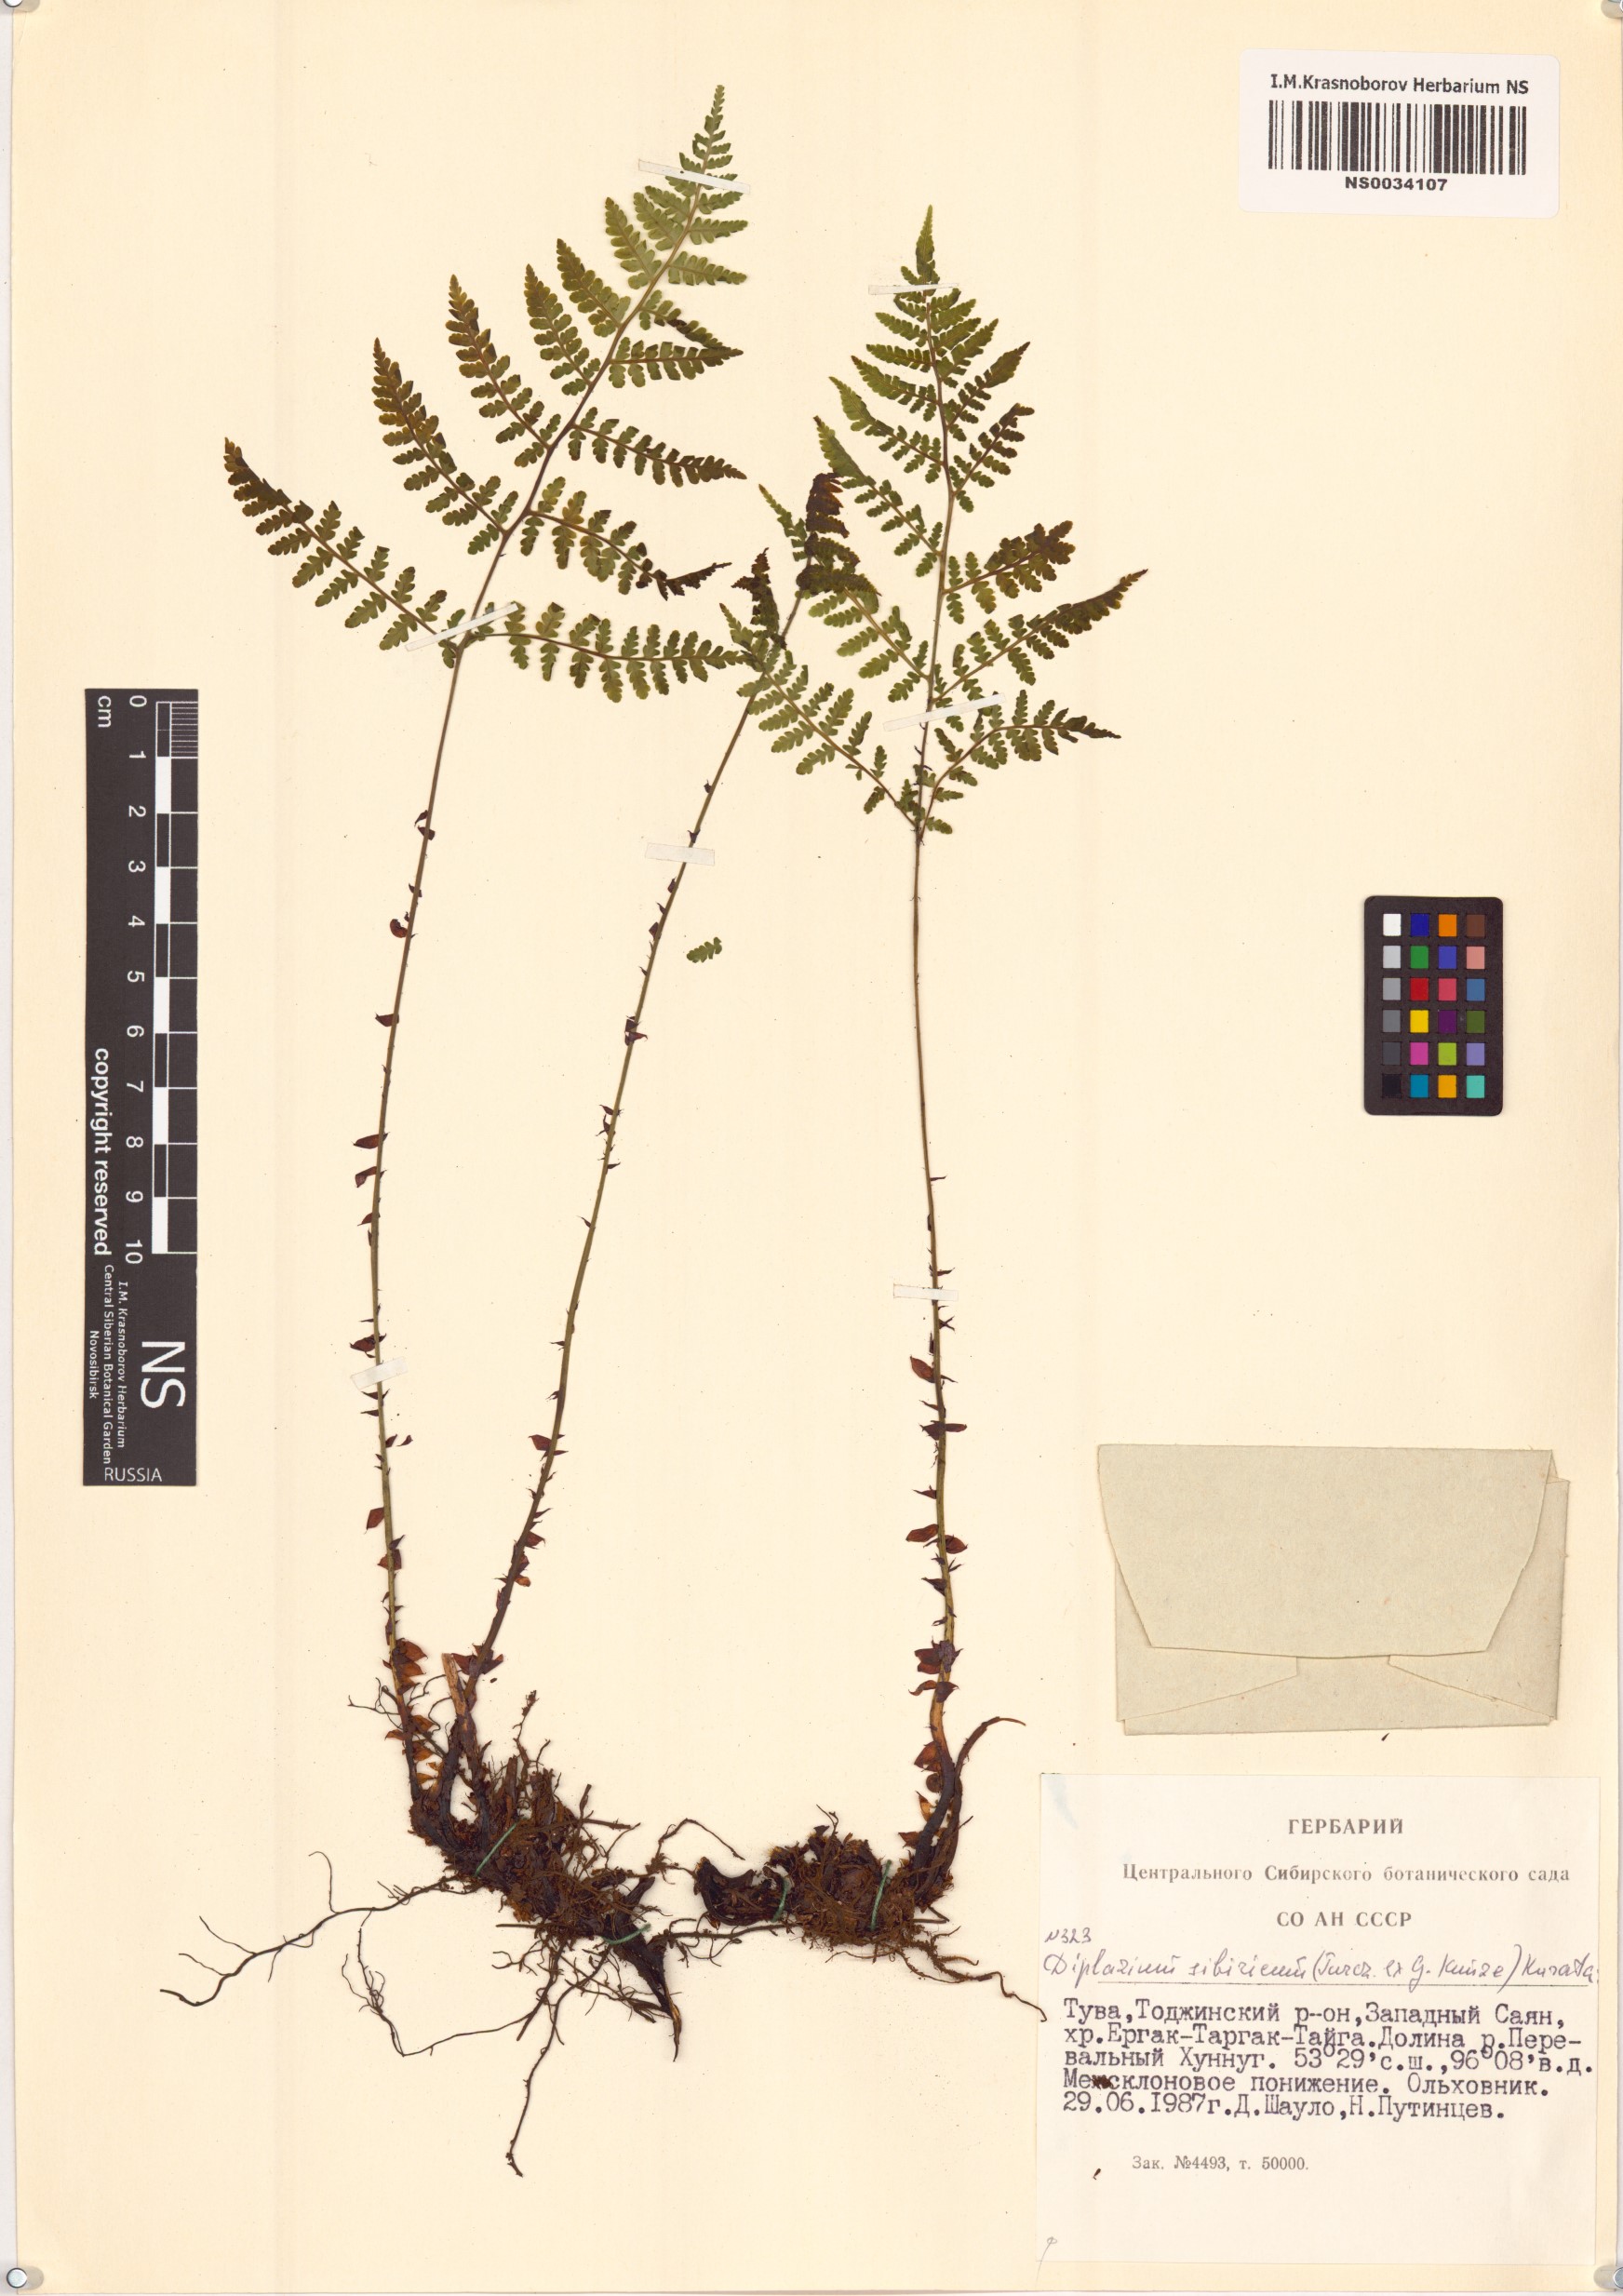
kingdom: Plantae
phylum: Tracheophyta
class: Polypodiopsida
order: Polypodiales
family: Athyriaceae
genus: Diplazium
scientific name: Diplazium sibiricum
